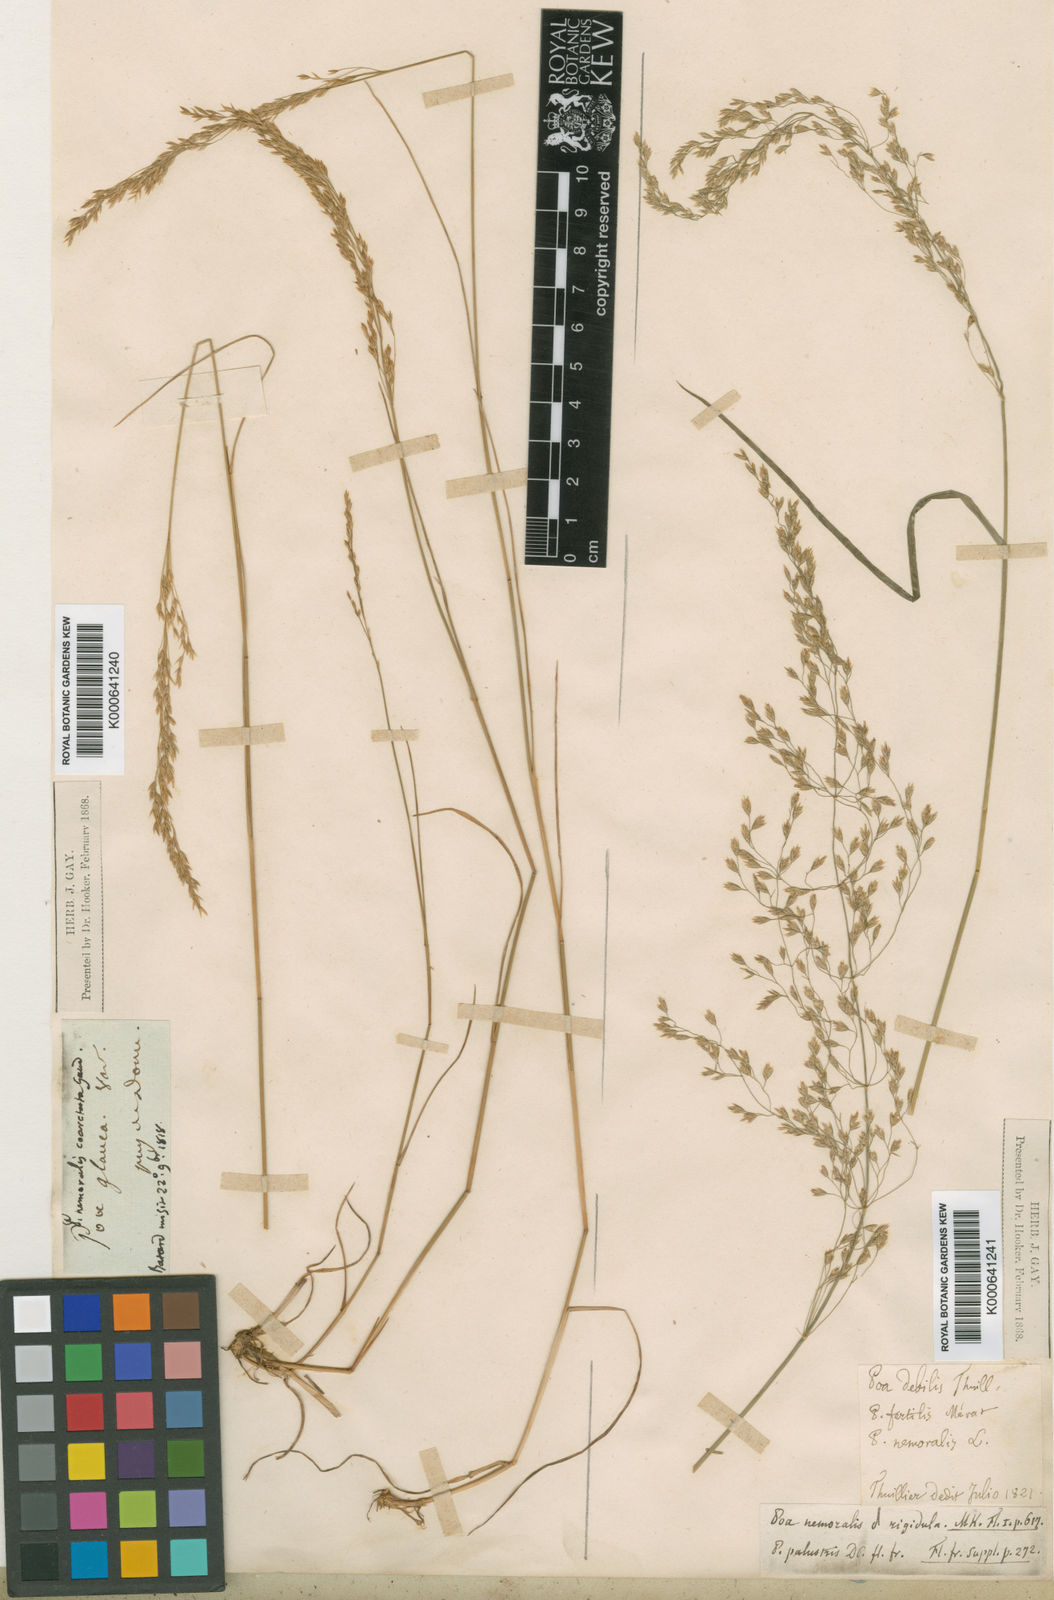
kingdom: Plantae
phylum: Tracheophyta
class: Liliopsida
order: Poales
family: Poaceae
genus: Poa
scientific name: Poa nemoralis
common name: Wood bluegrass
